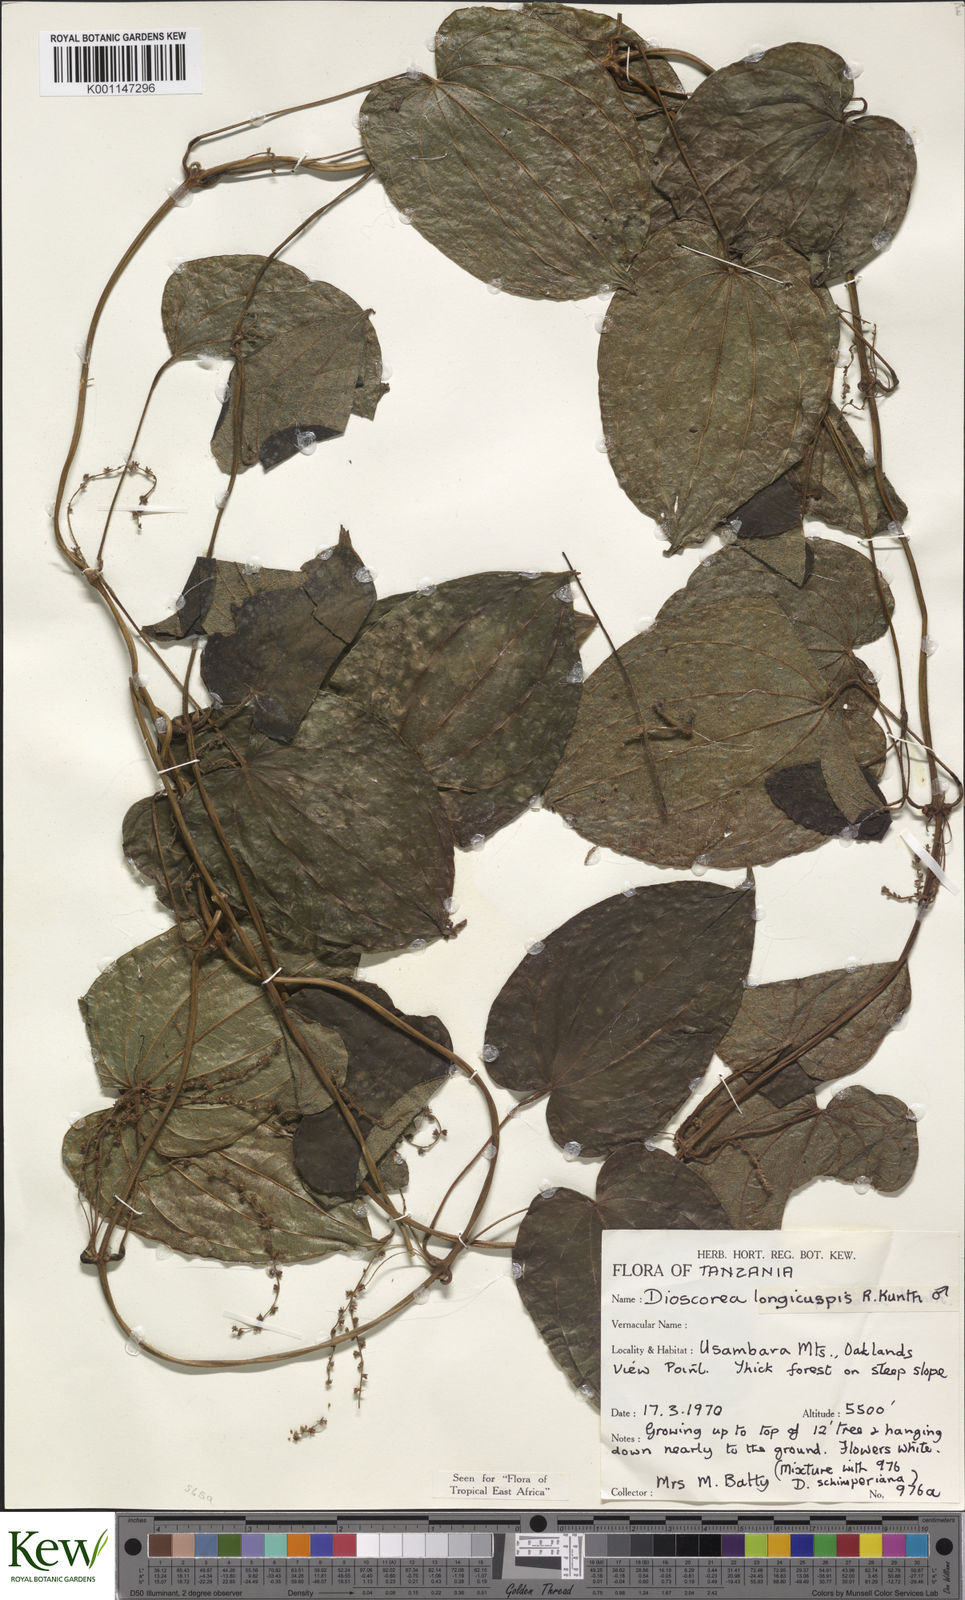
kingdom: Plantae
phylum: Tracheophyta
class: Liliopsida
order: Dioscoreales
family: Dioscoreaceae
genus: Dioscorea
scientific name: Dioscorea longicuspis
